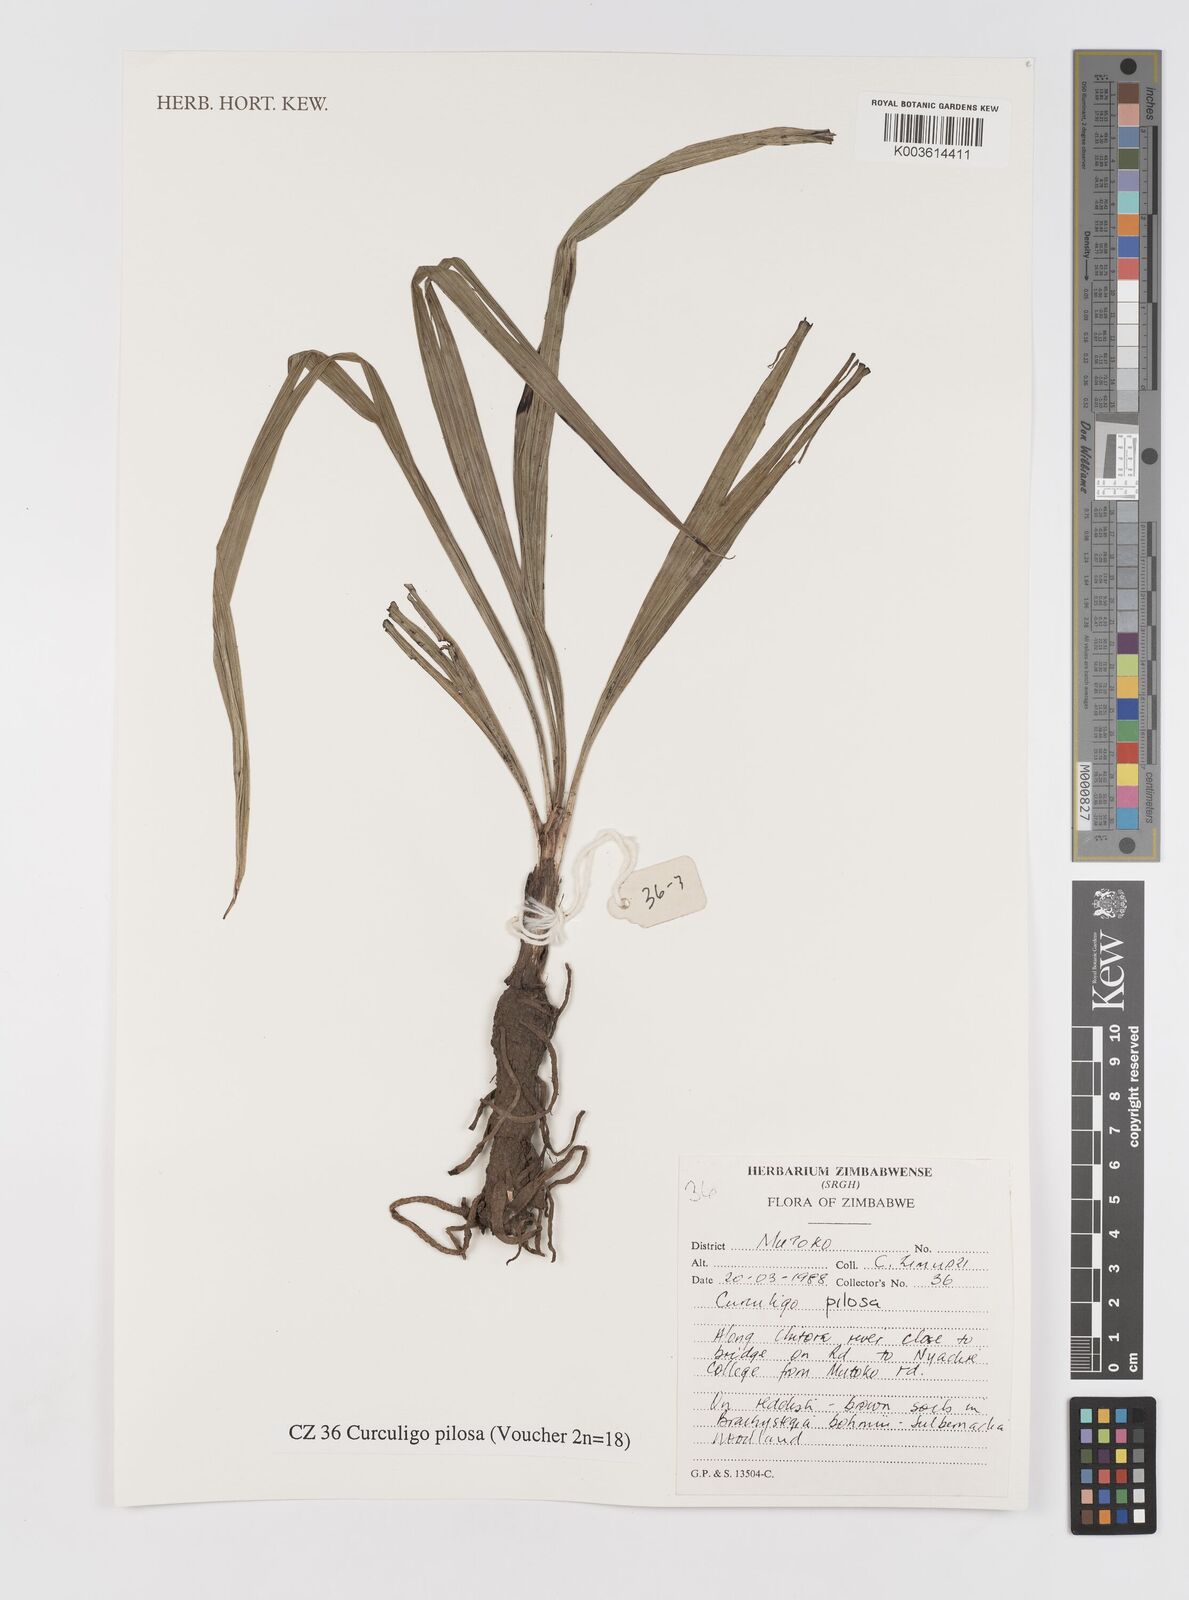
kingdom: Plantae
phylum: Tracheophyta
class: Liliopsida
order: Asparagales
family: Hypoxidaceae
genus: Curculigo
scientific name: Curculigo pilosa
